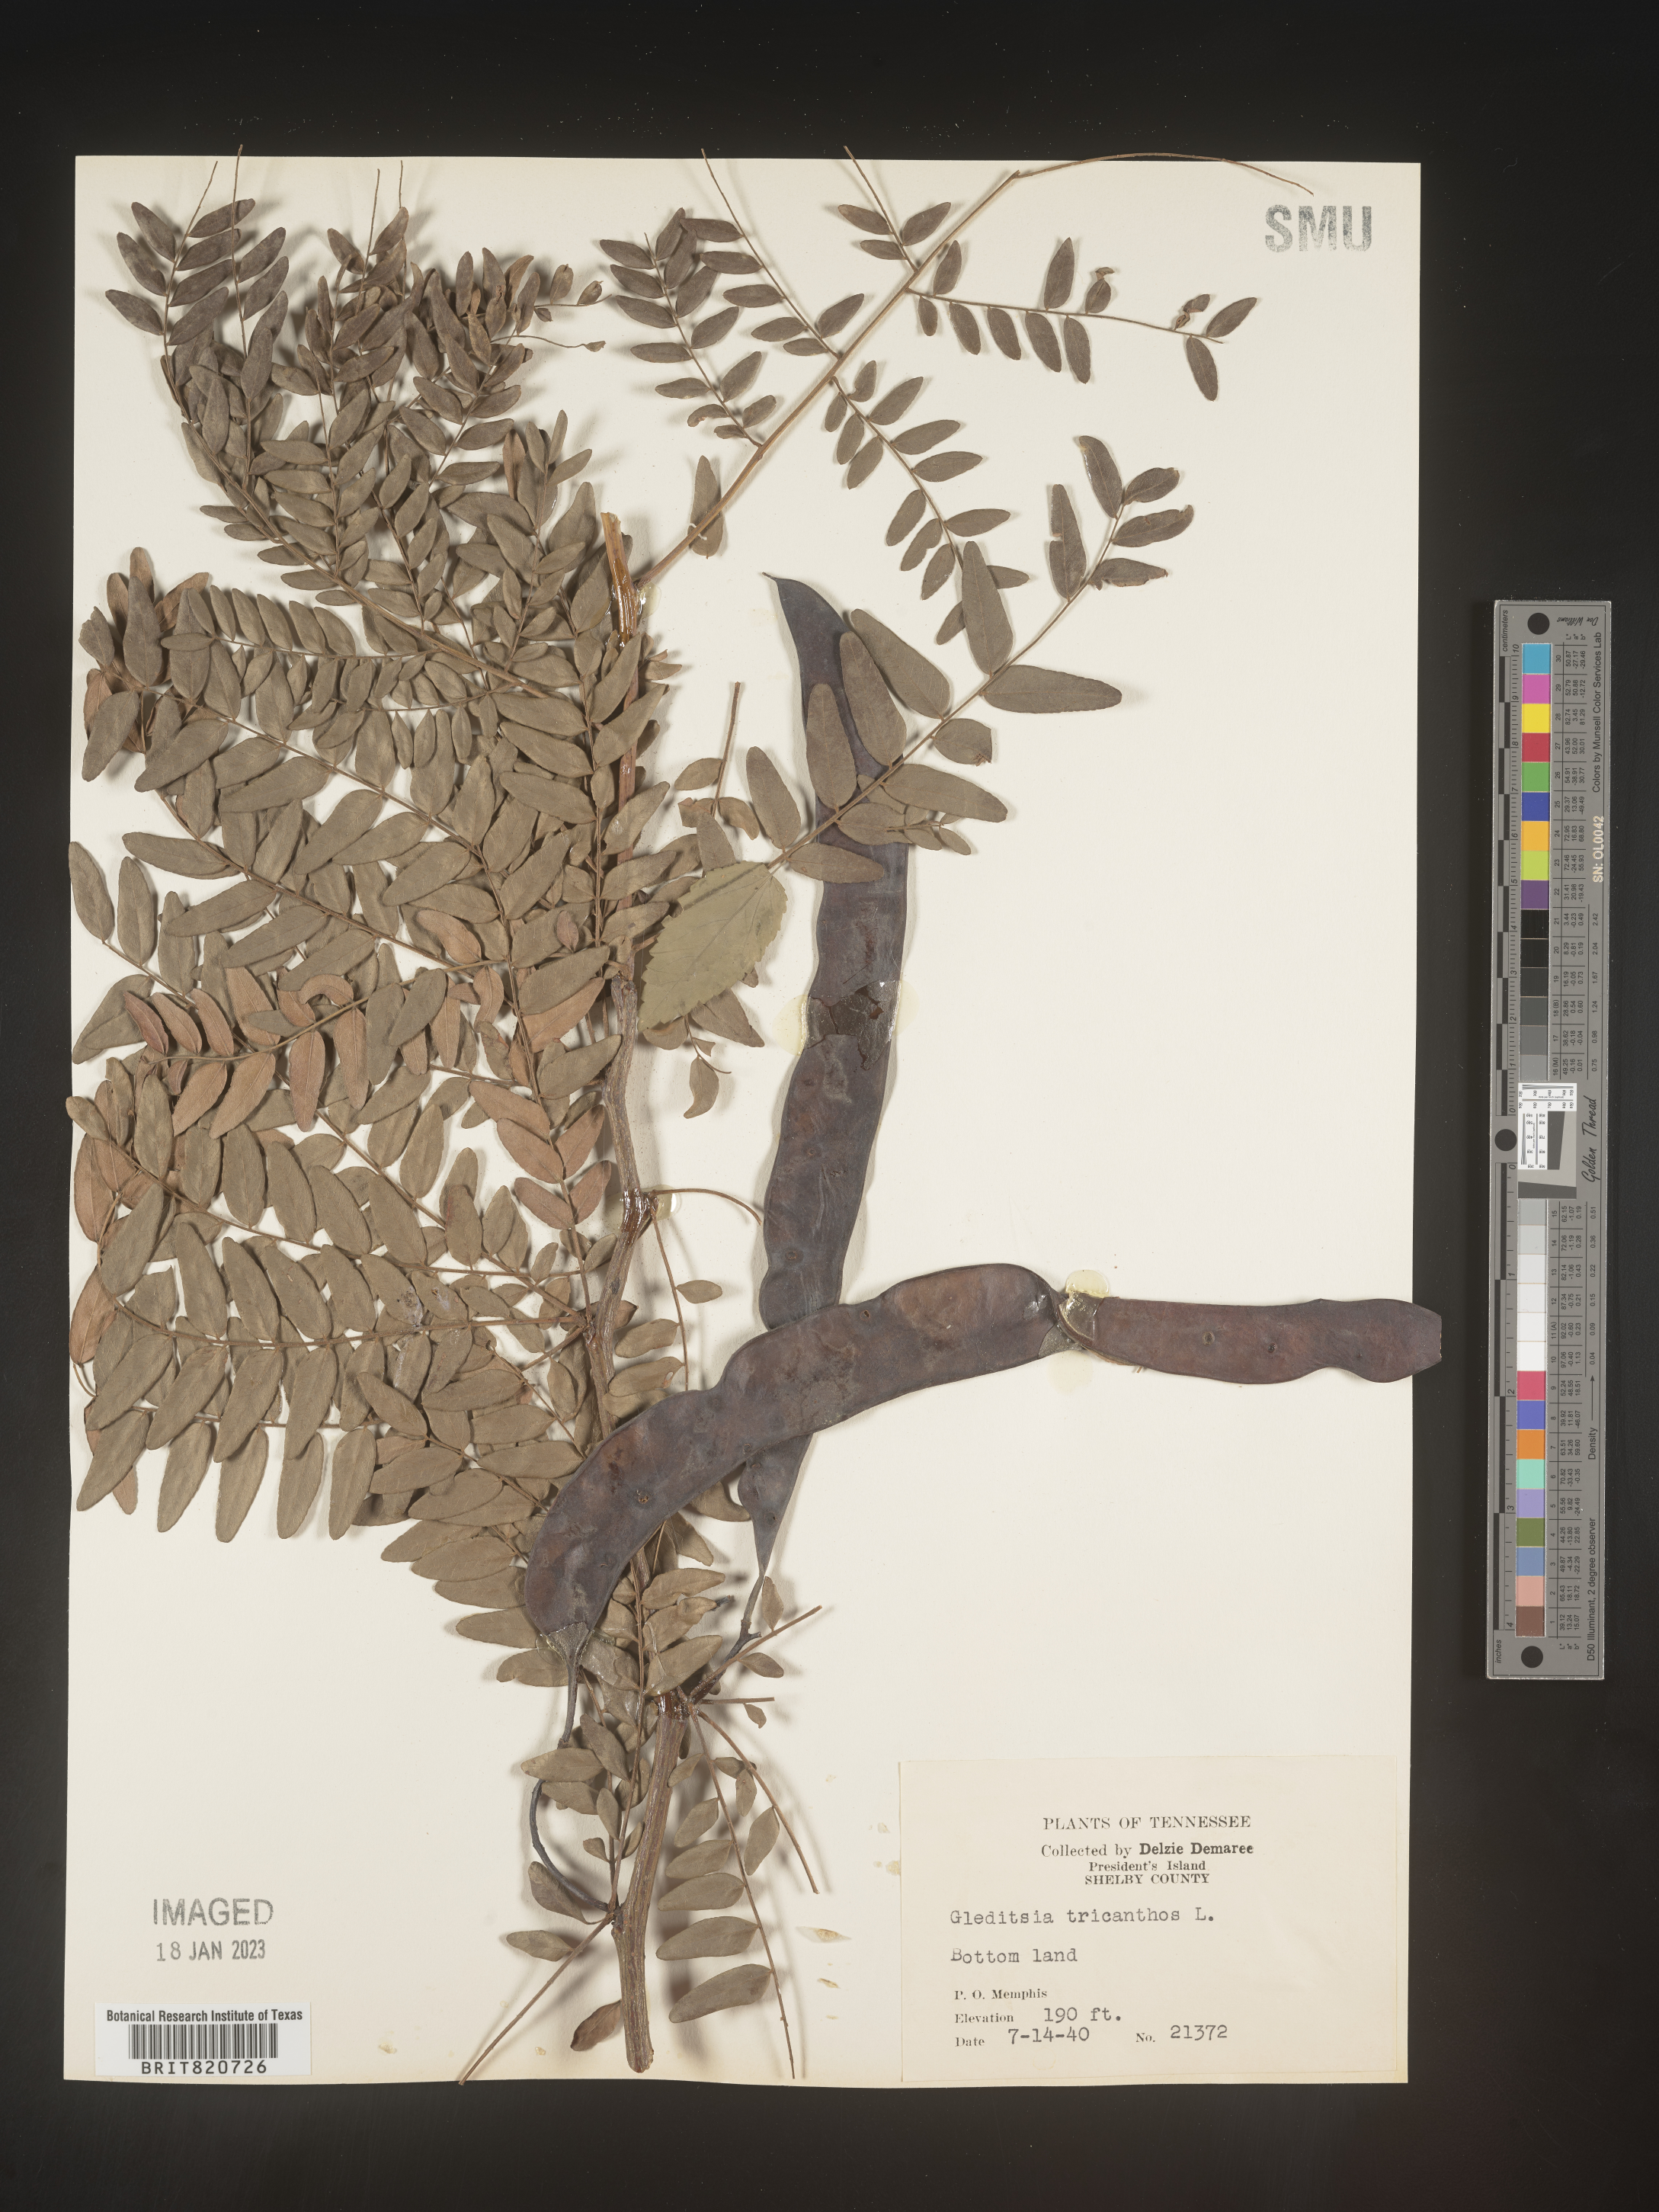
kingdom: Plantae
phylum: Tracheophyta
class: Magnoliopsida
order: Fabales
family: Fabaceae
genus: Gleditsia
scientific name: Gleditsia triacanthos
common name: Common honeylocust
